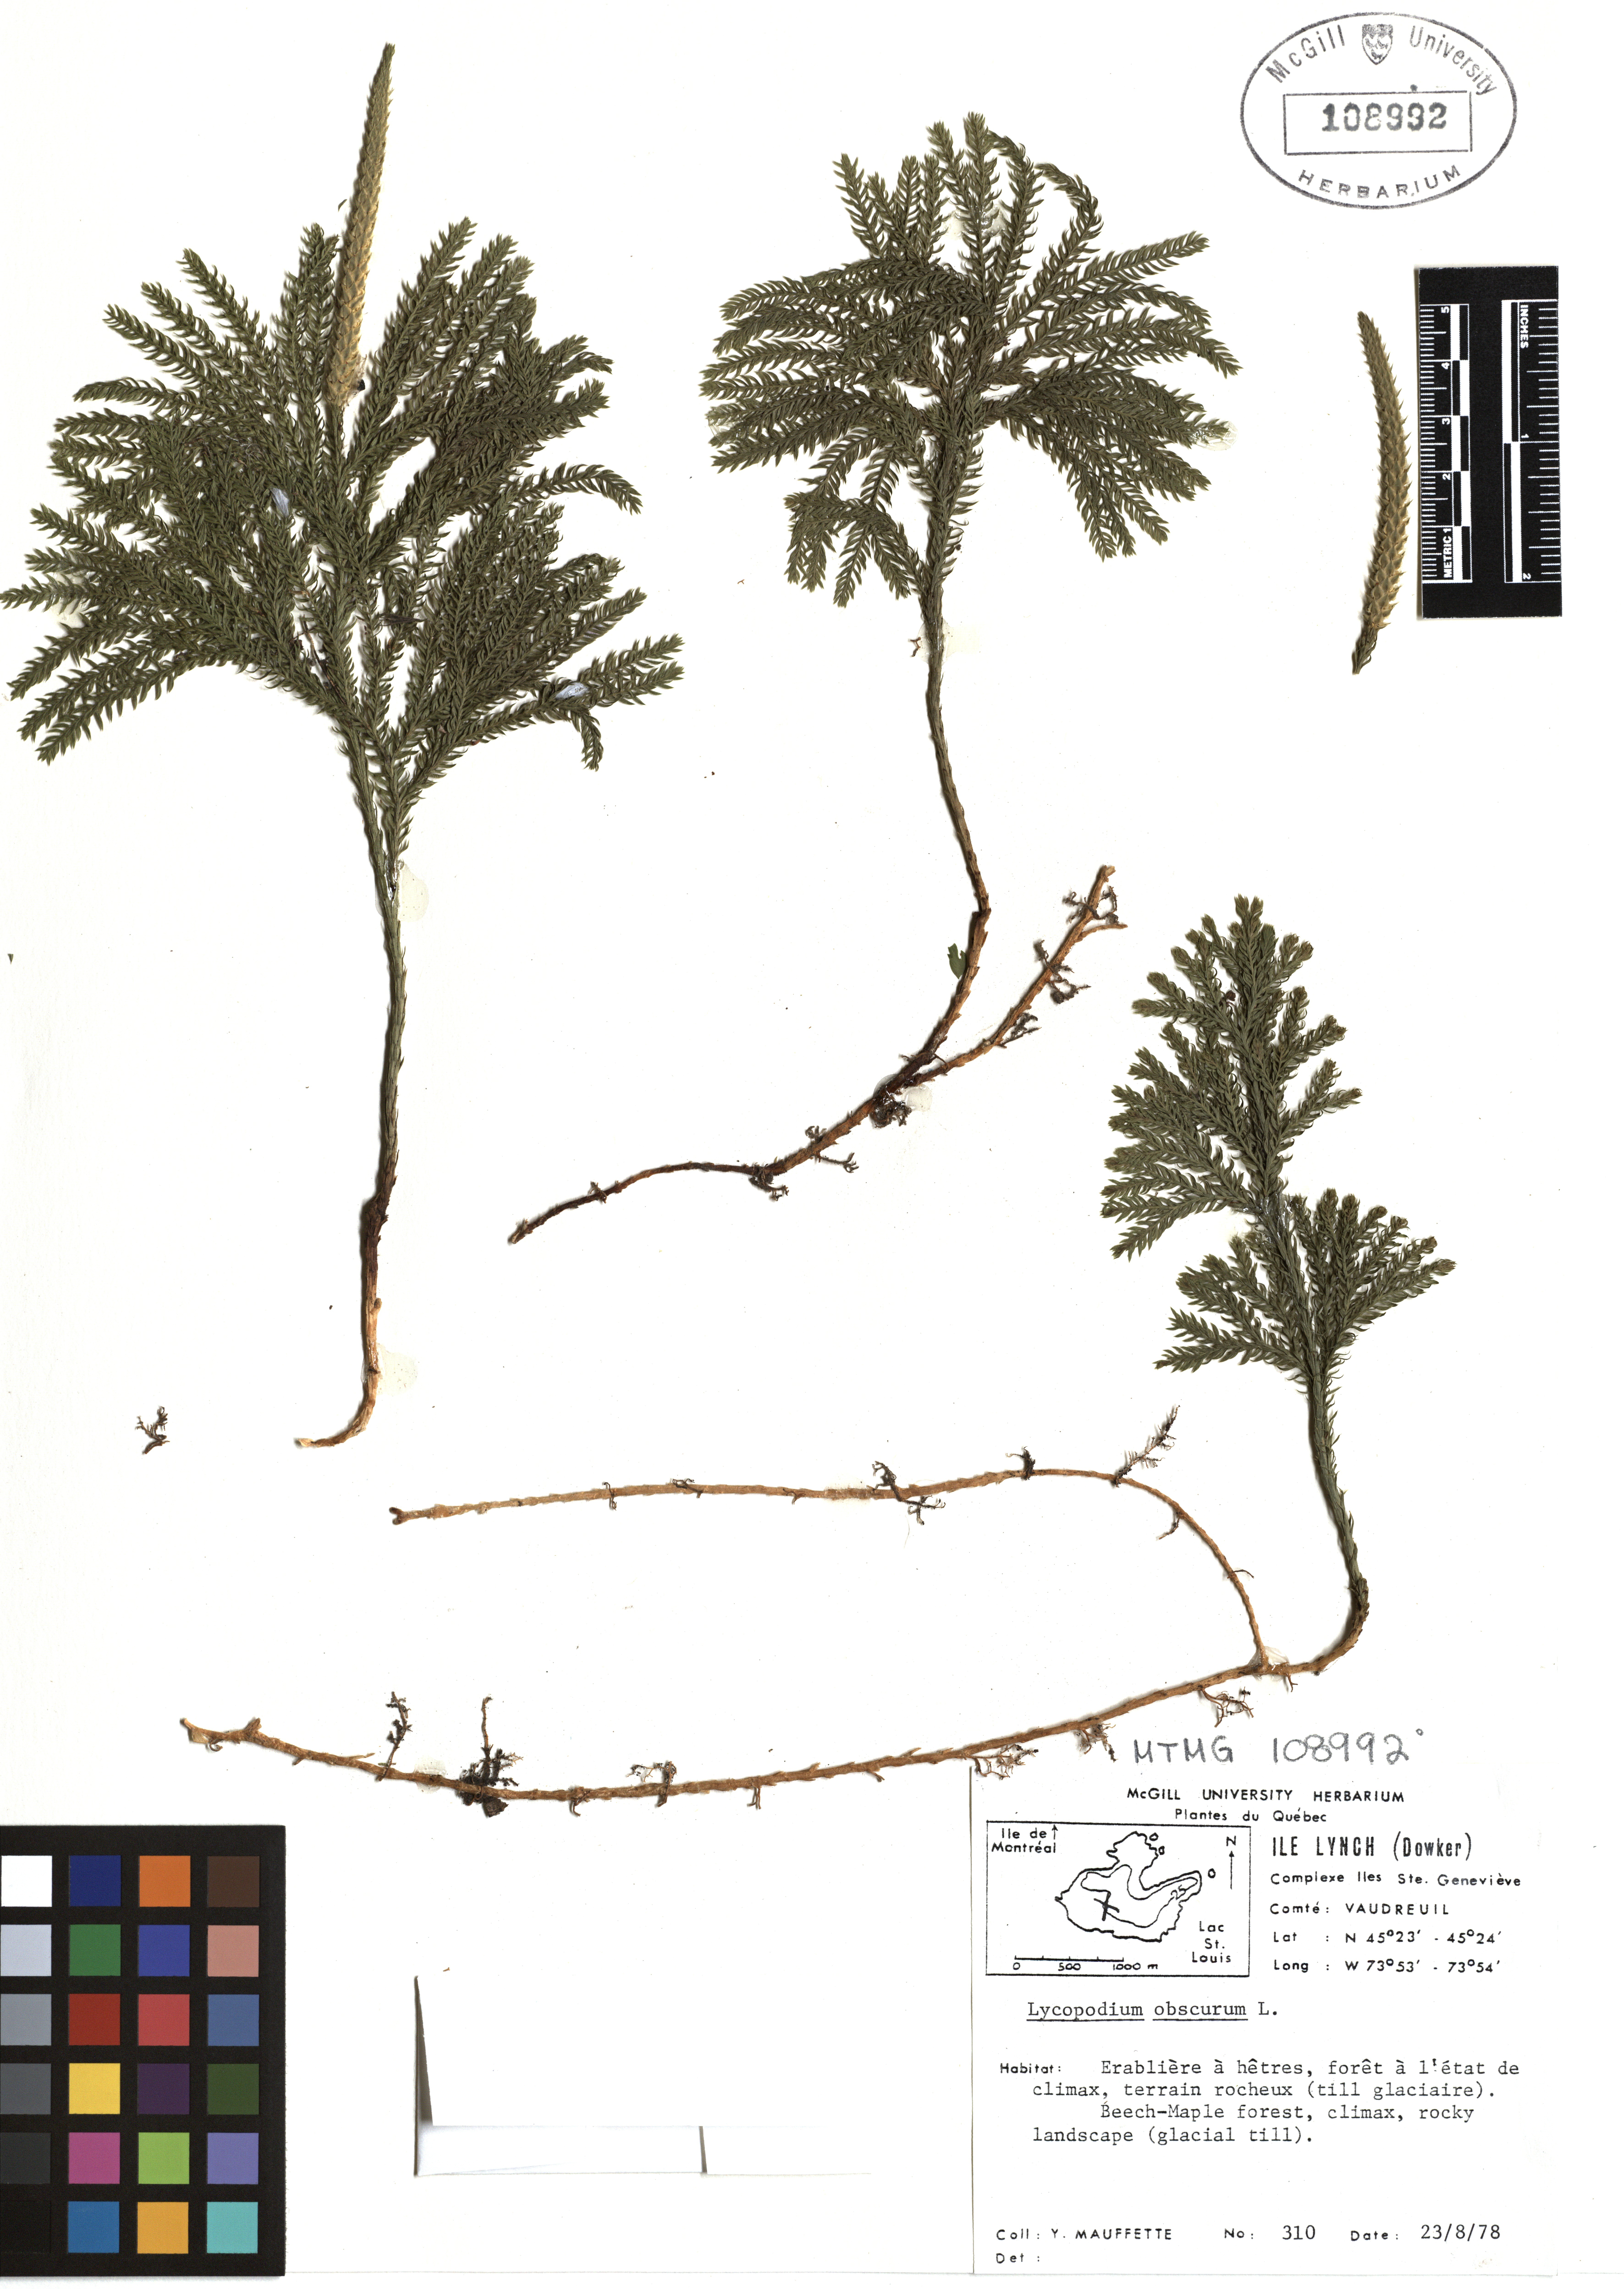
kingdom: Plantae
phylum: Tracheophyta
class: Lycopodiopsida
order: Lycopodiales
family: Lycopodiaceae
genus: Dendrolycopodium
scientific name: Dendrolycopodium obscurum
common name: Common ground-pine
